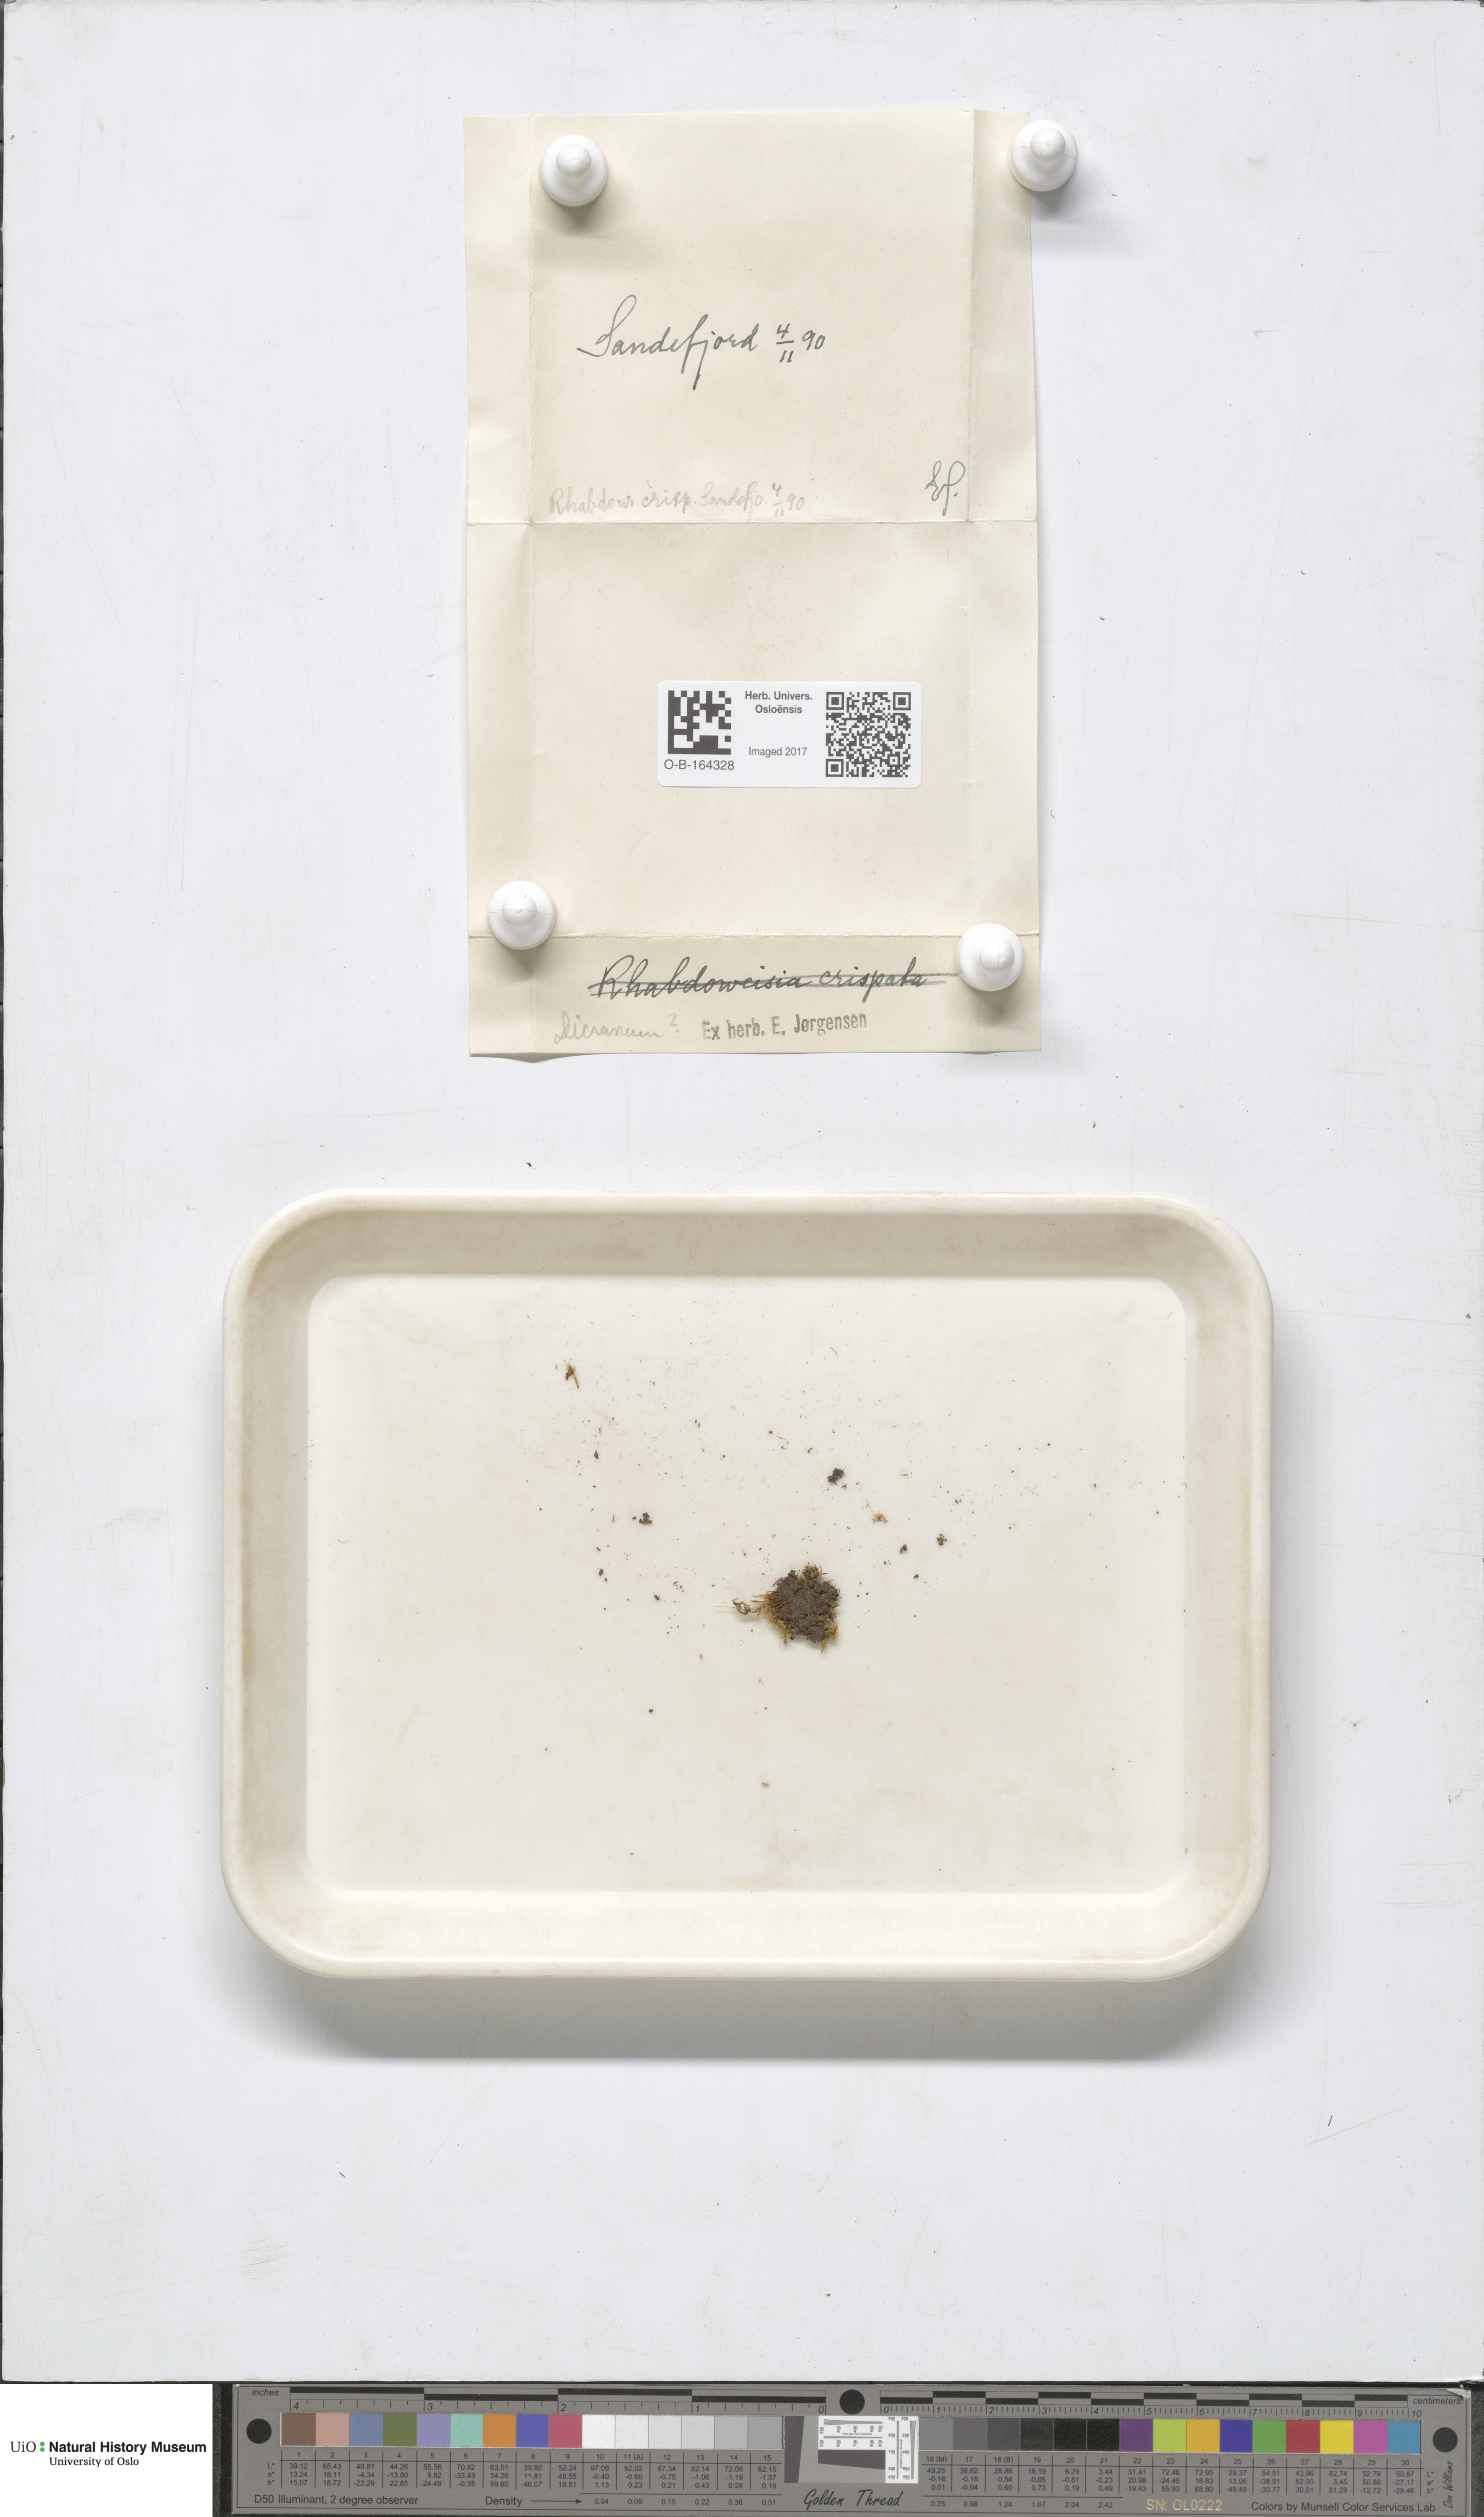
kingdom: Plantae
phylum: Bryophyta
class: Bryopsida
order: Dicranales
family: Dicranaceae
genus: Dicranum
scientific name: Dicranum
